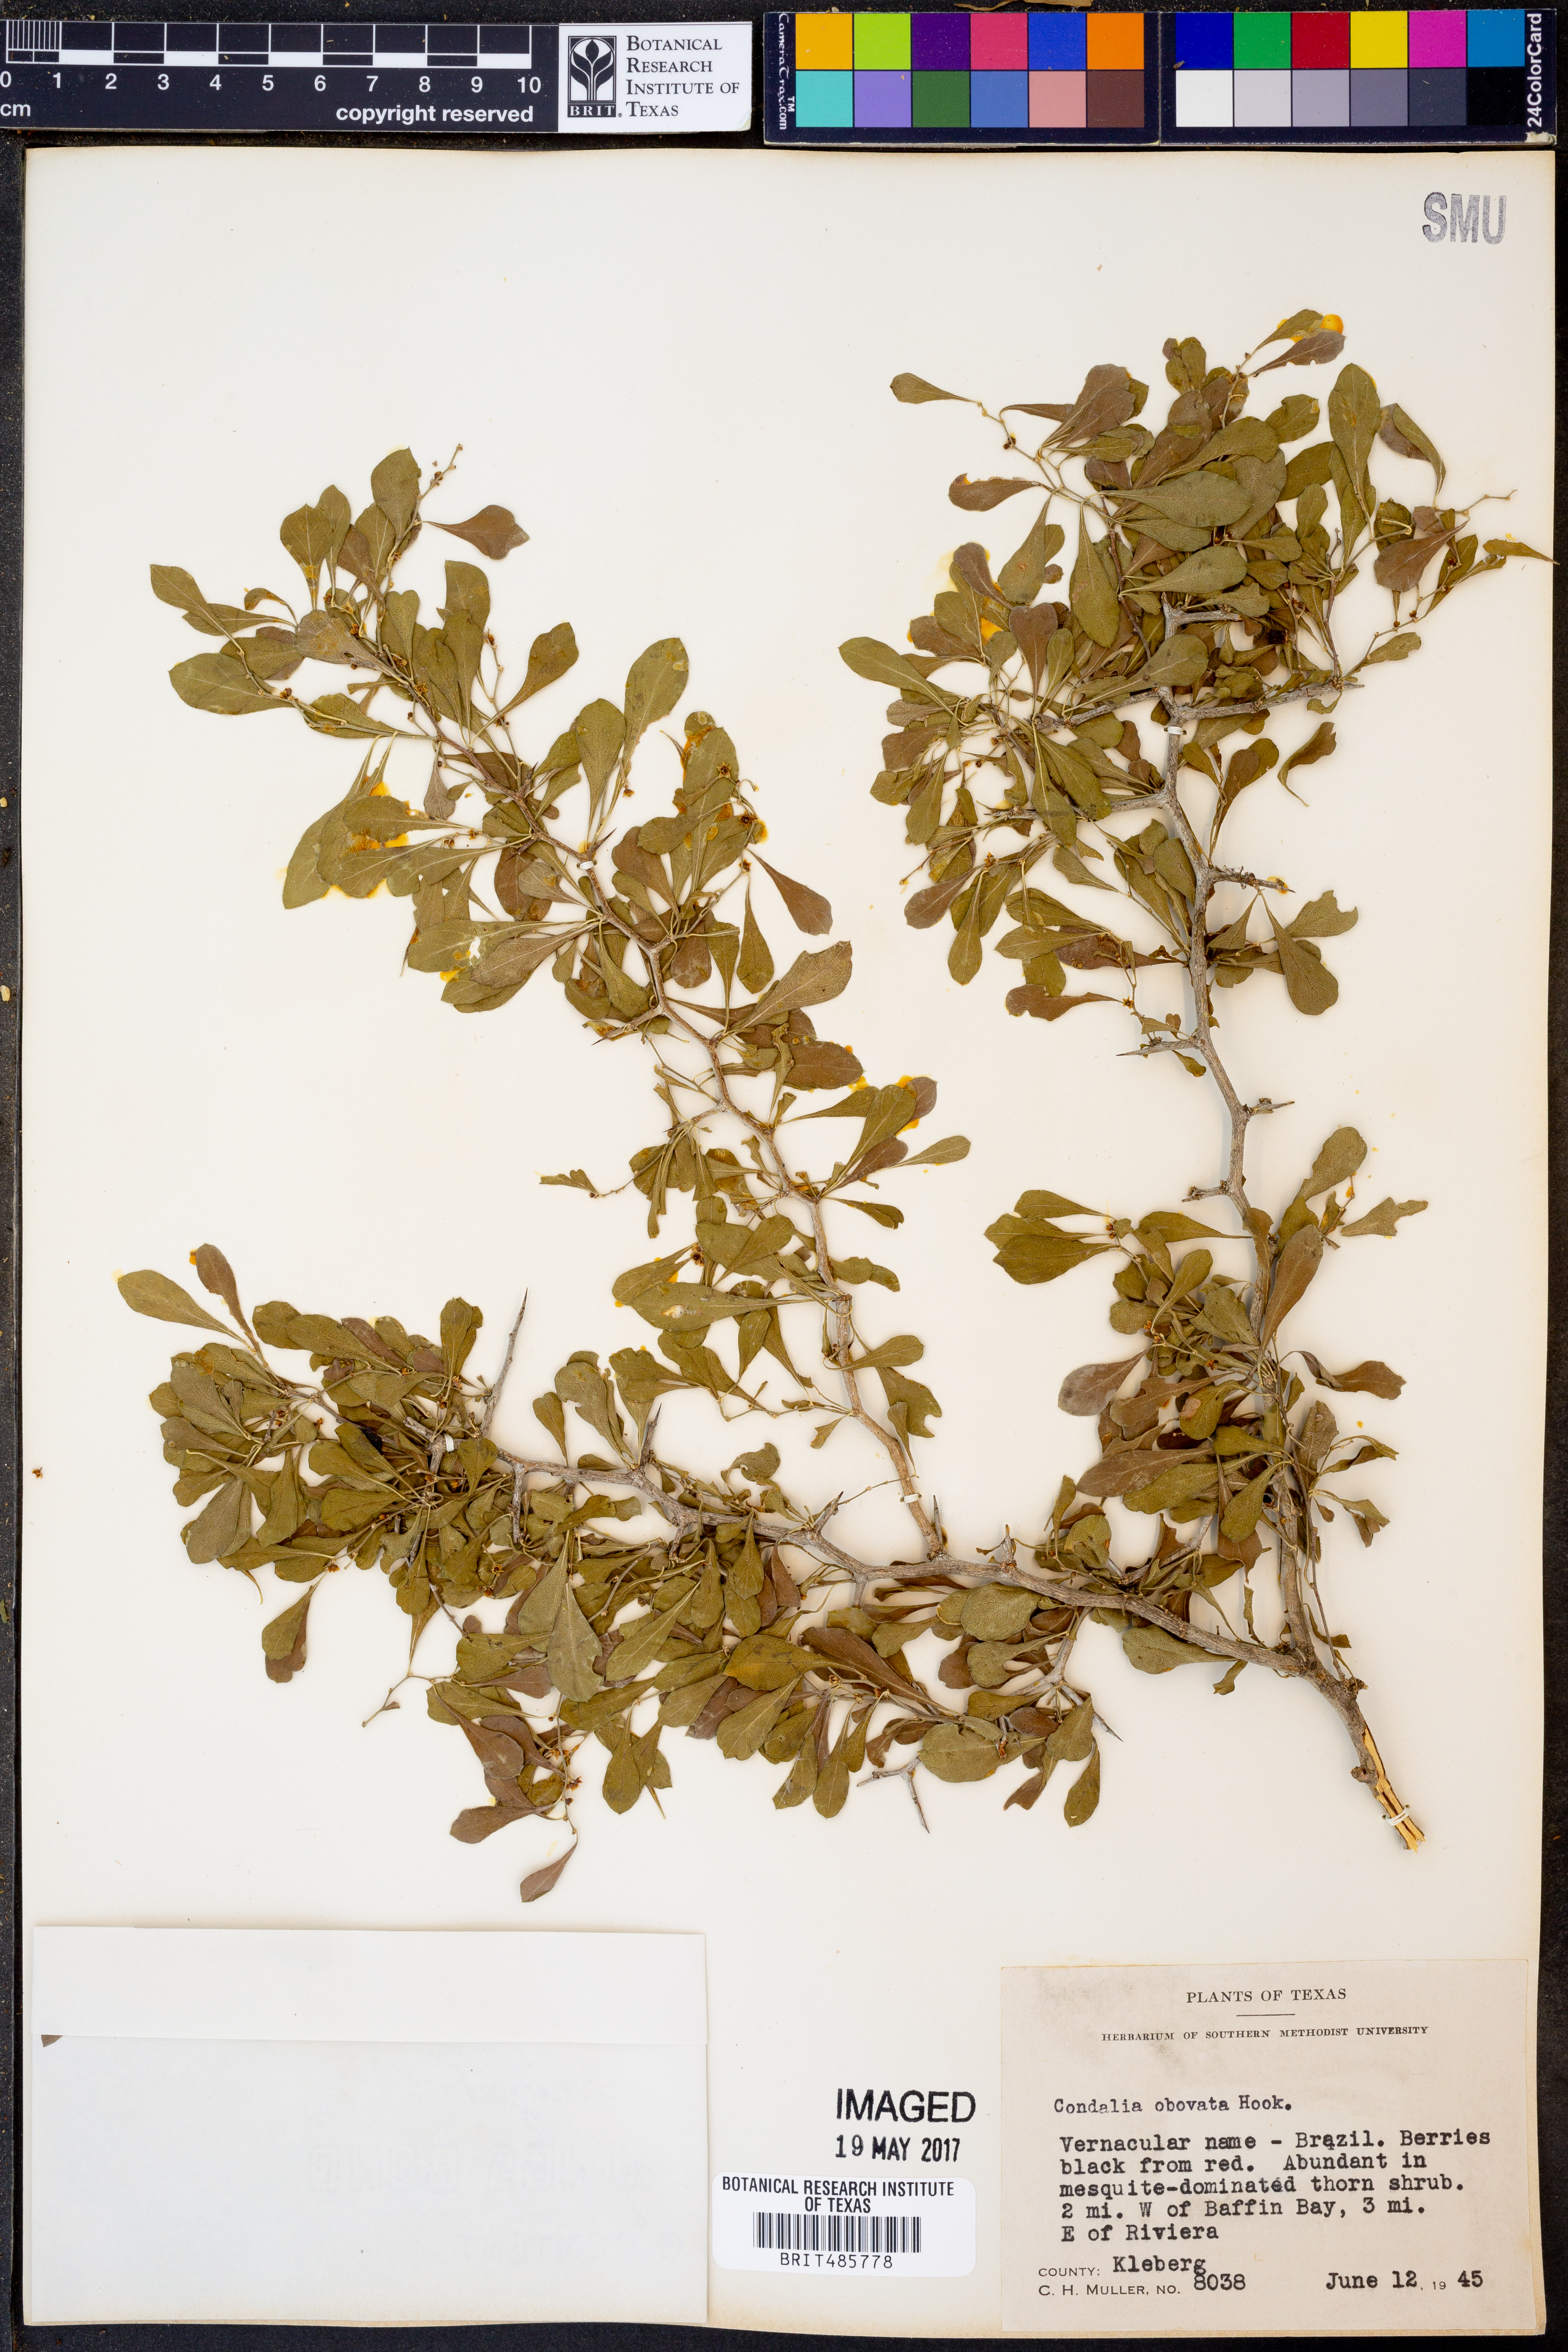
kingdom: Plantae
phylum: Tracheophyta
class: Magnoliopsida
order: Rosales
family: Rhamnaceae
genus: Condalia
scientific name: Condalia hookeri
